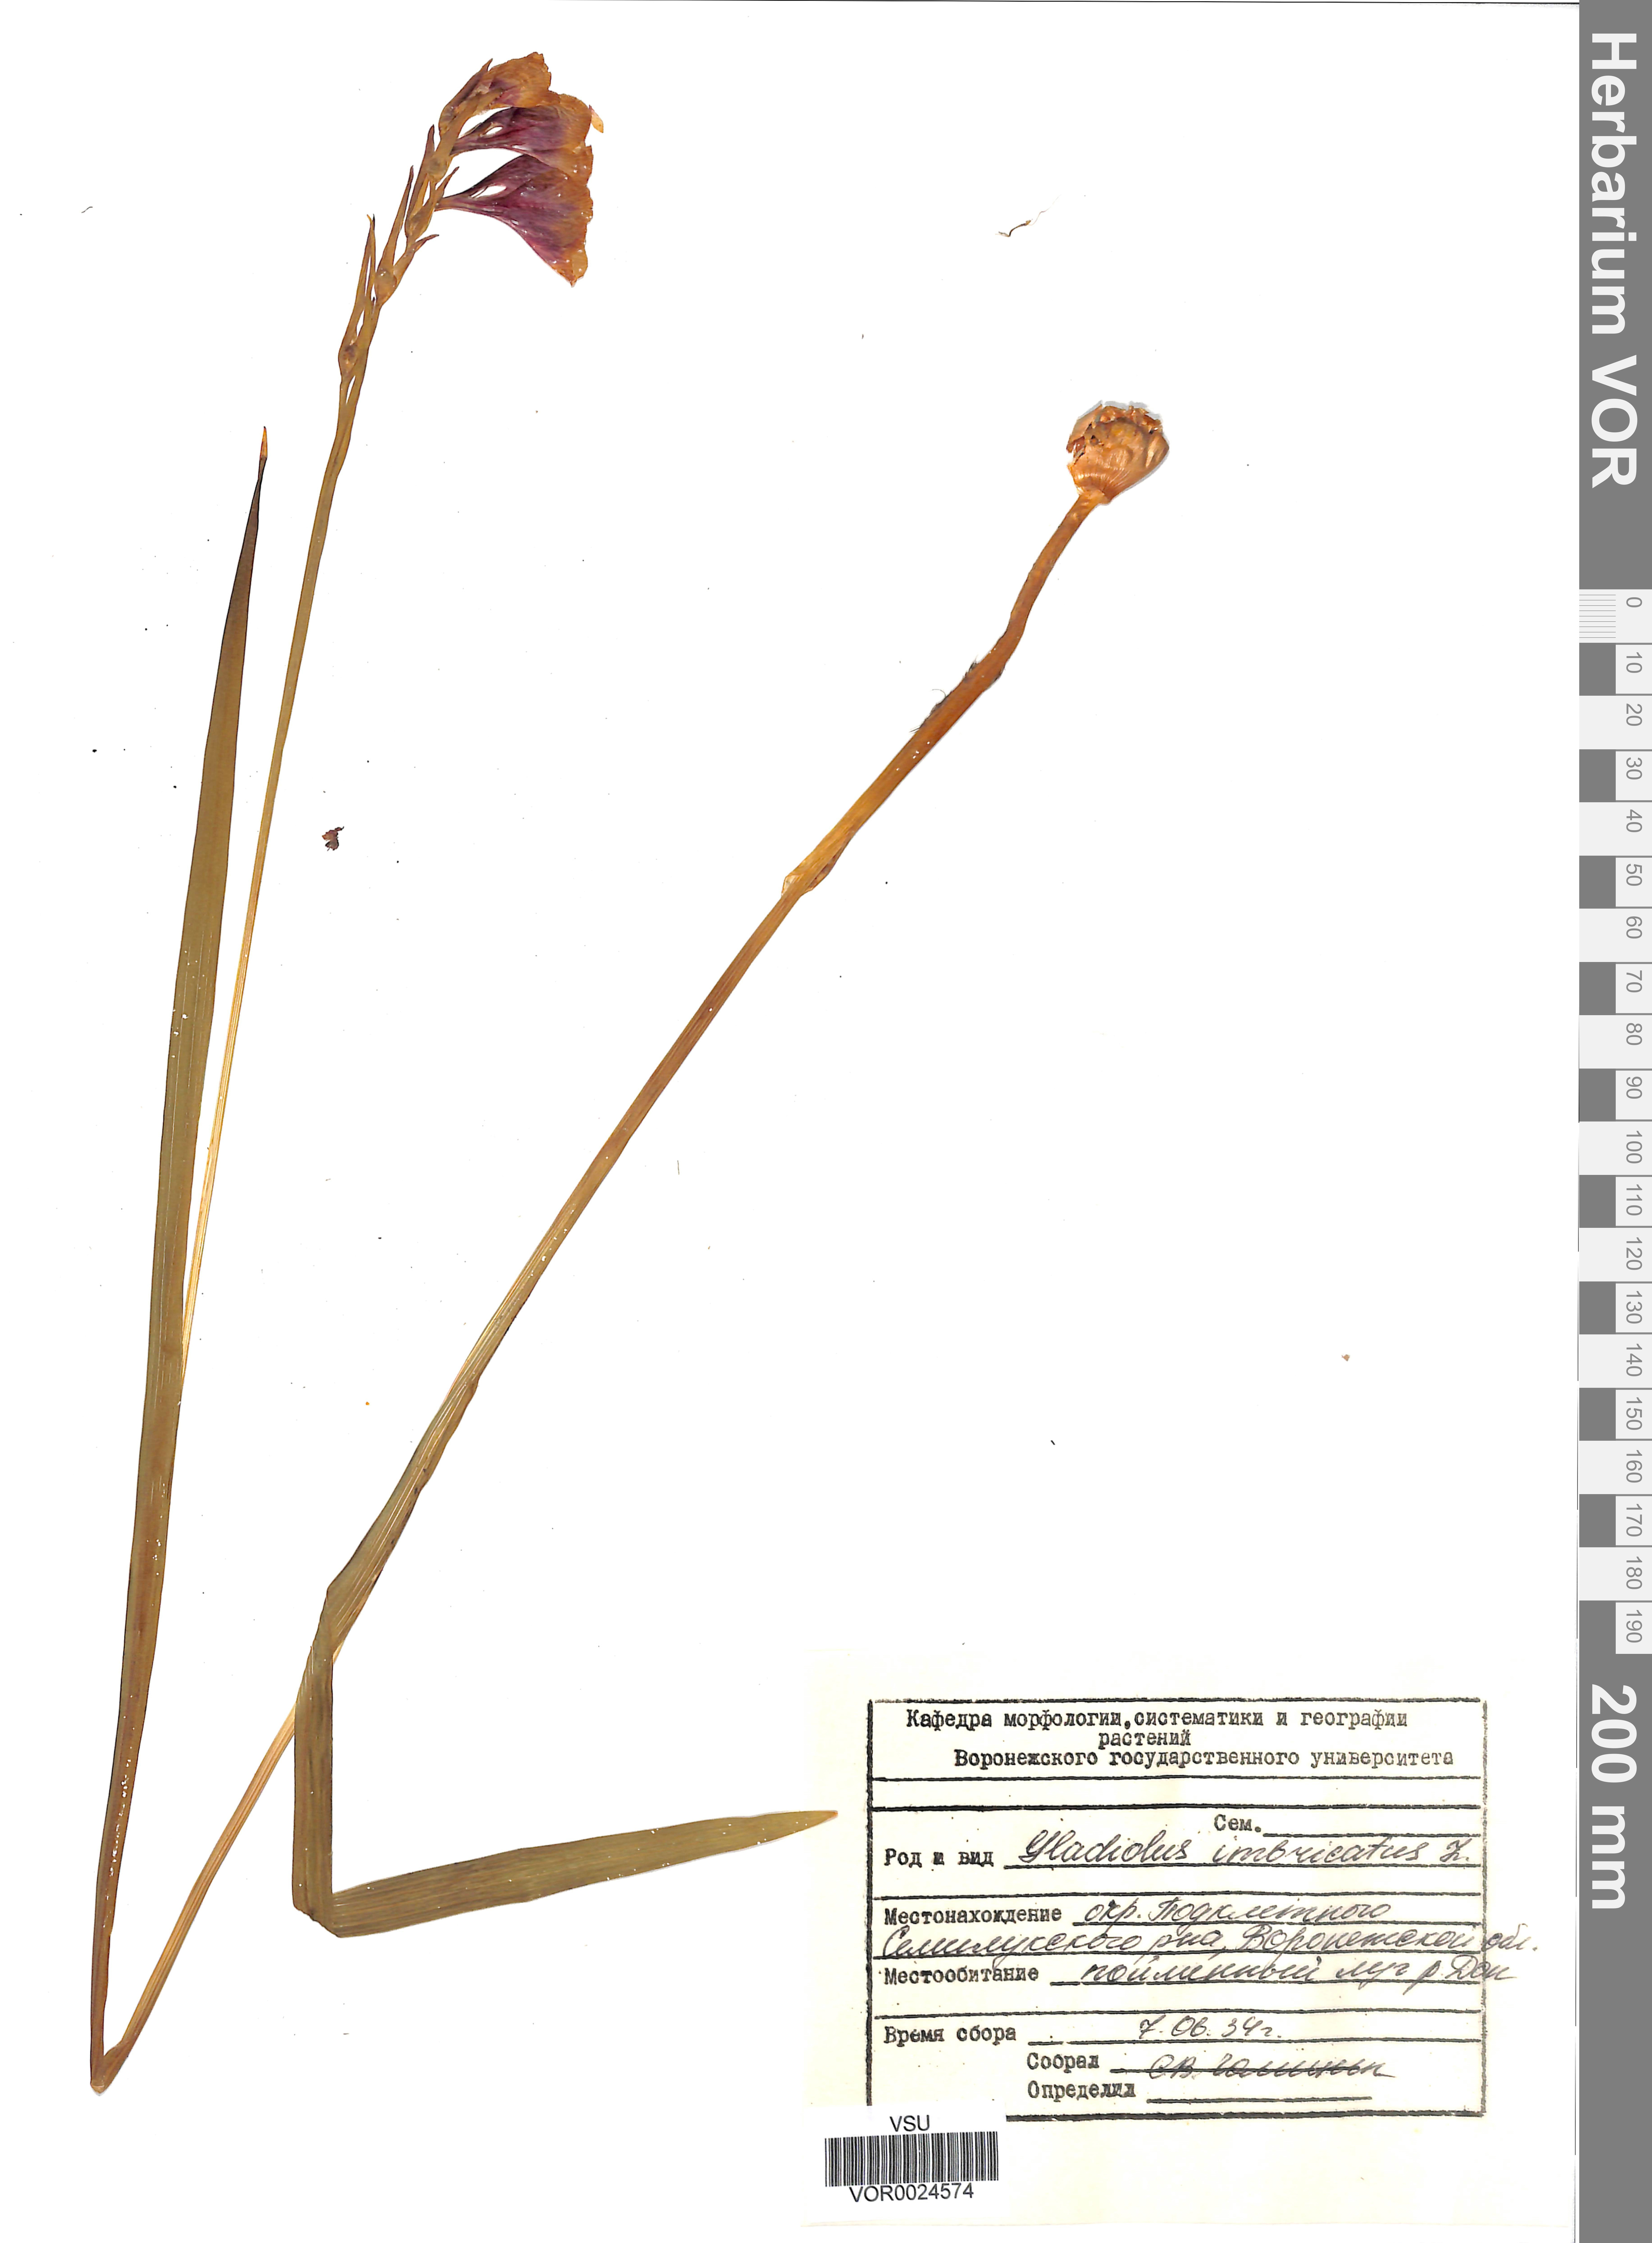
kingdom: Plantae
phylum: Tracheophyta
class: Liliopsida
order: Asparagales
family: Iridaceae
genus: Gladiolus
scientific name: Gladiolus tenuis
